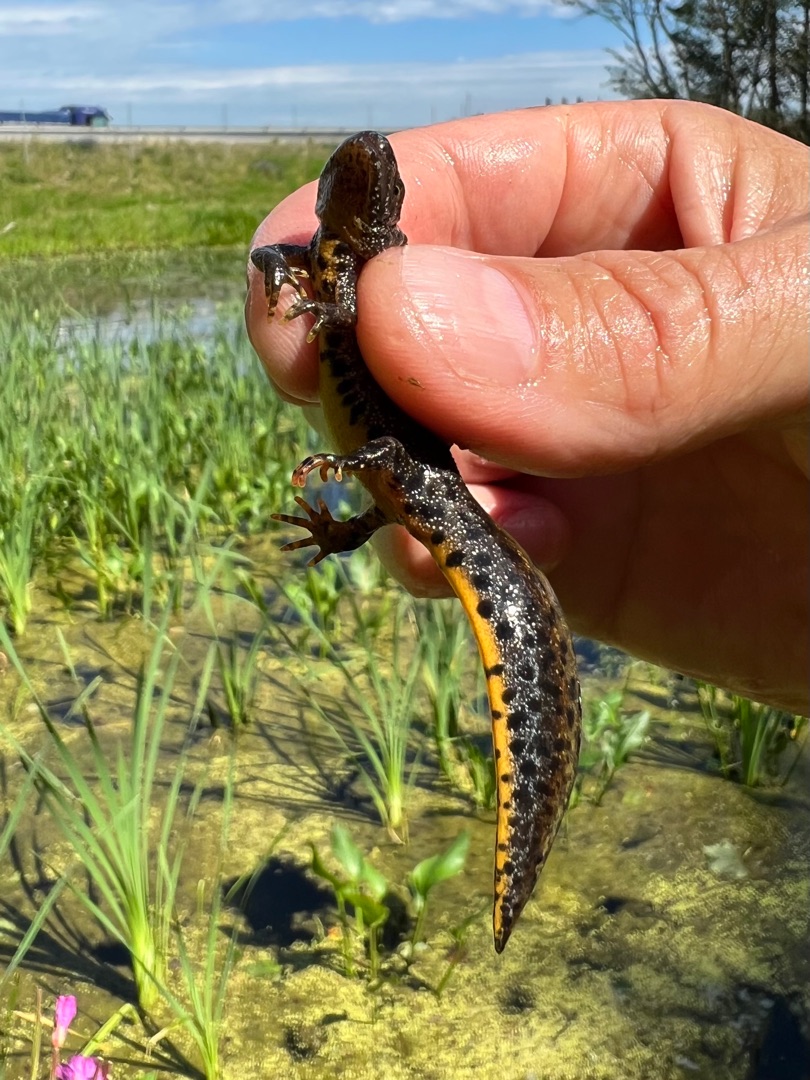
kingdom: Animalia
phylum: Chordata
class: Amphibia
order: Caudata
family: Salamandridae
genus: Triturus
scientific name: Triturus cristatus
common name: Stor vandsalamander
